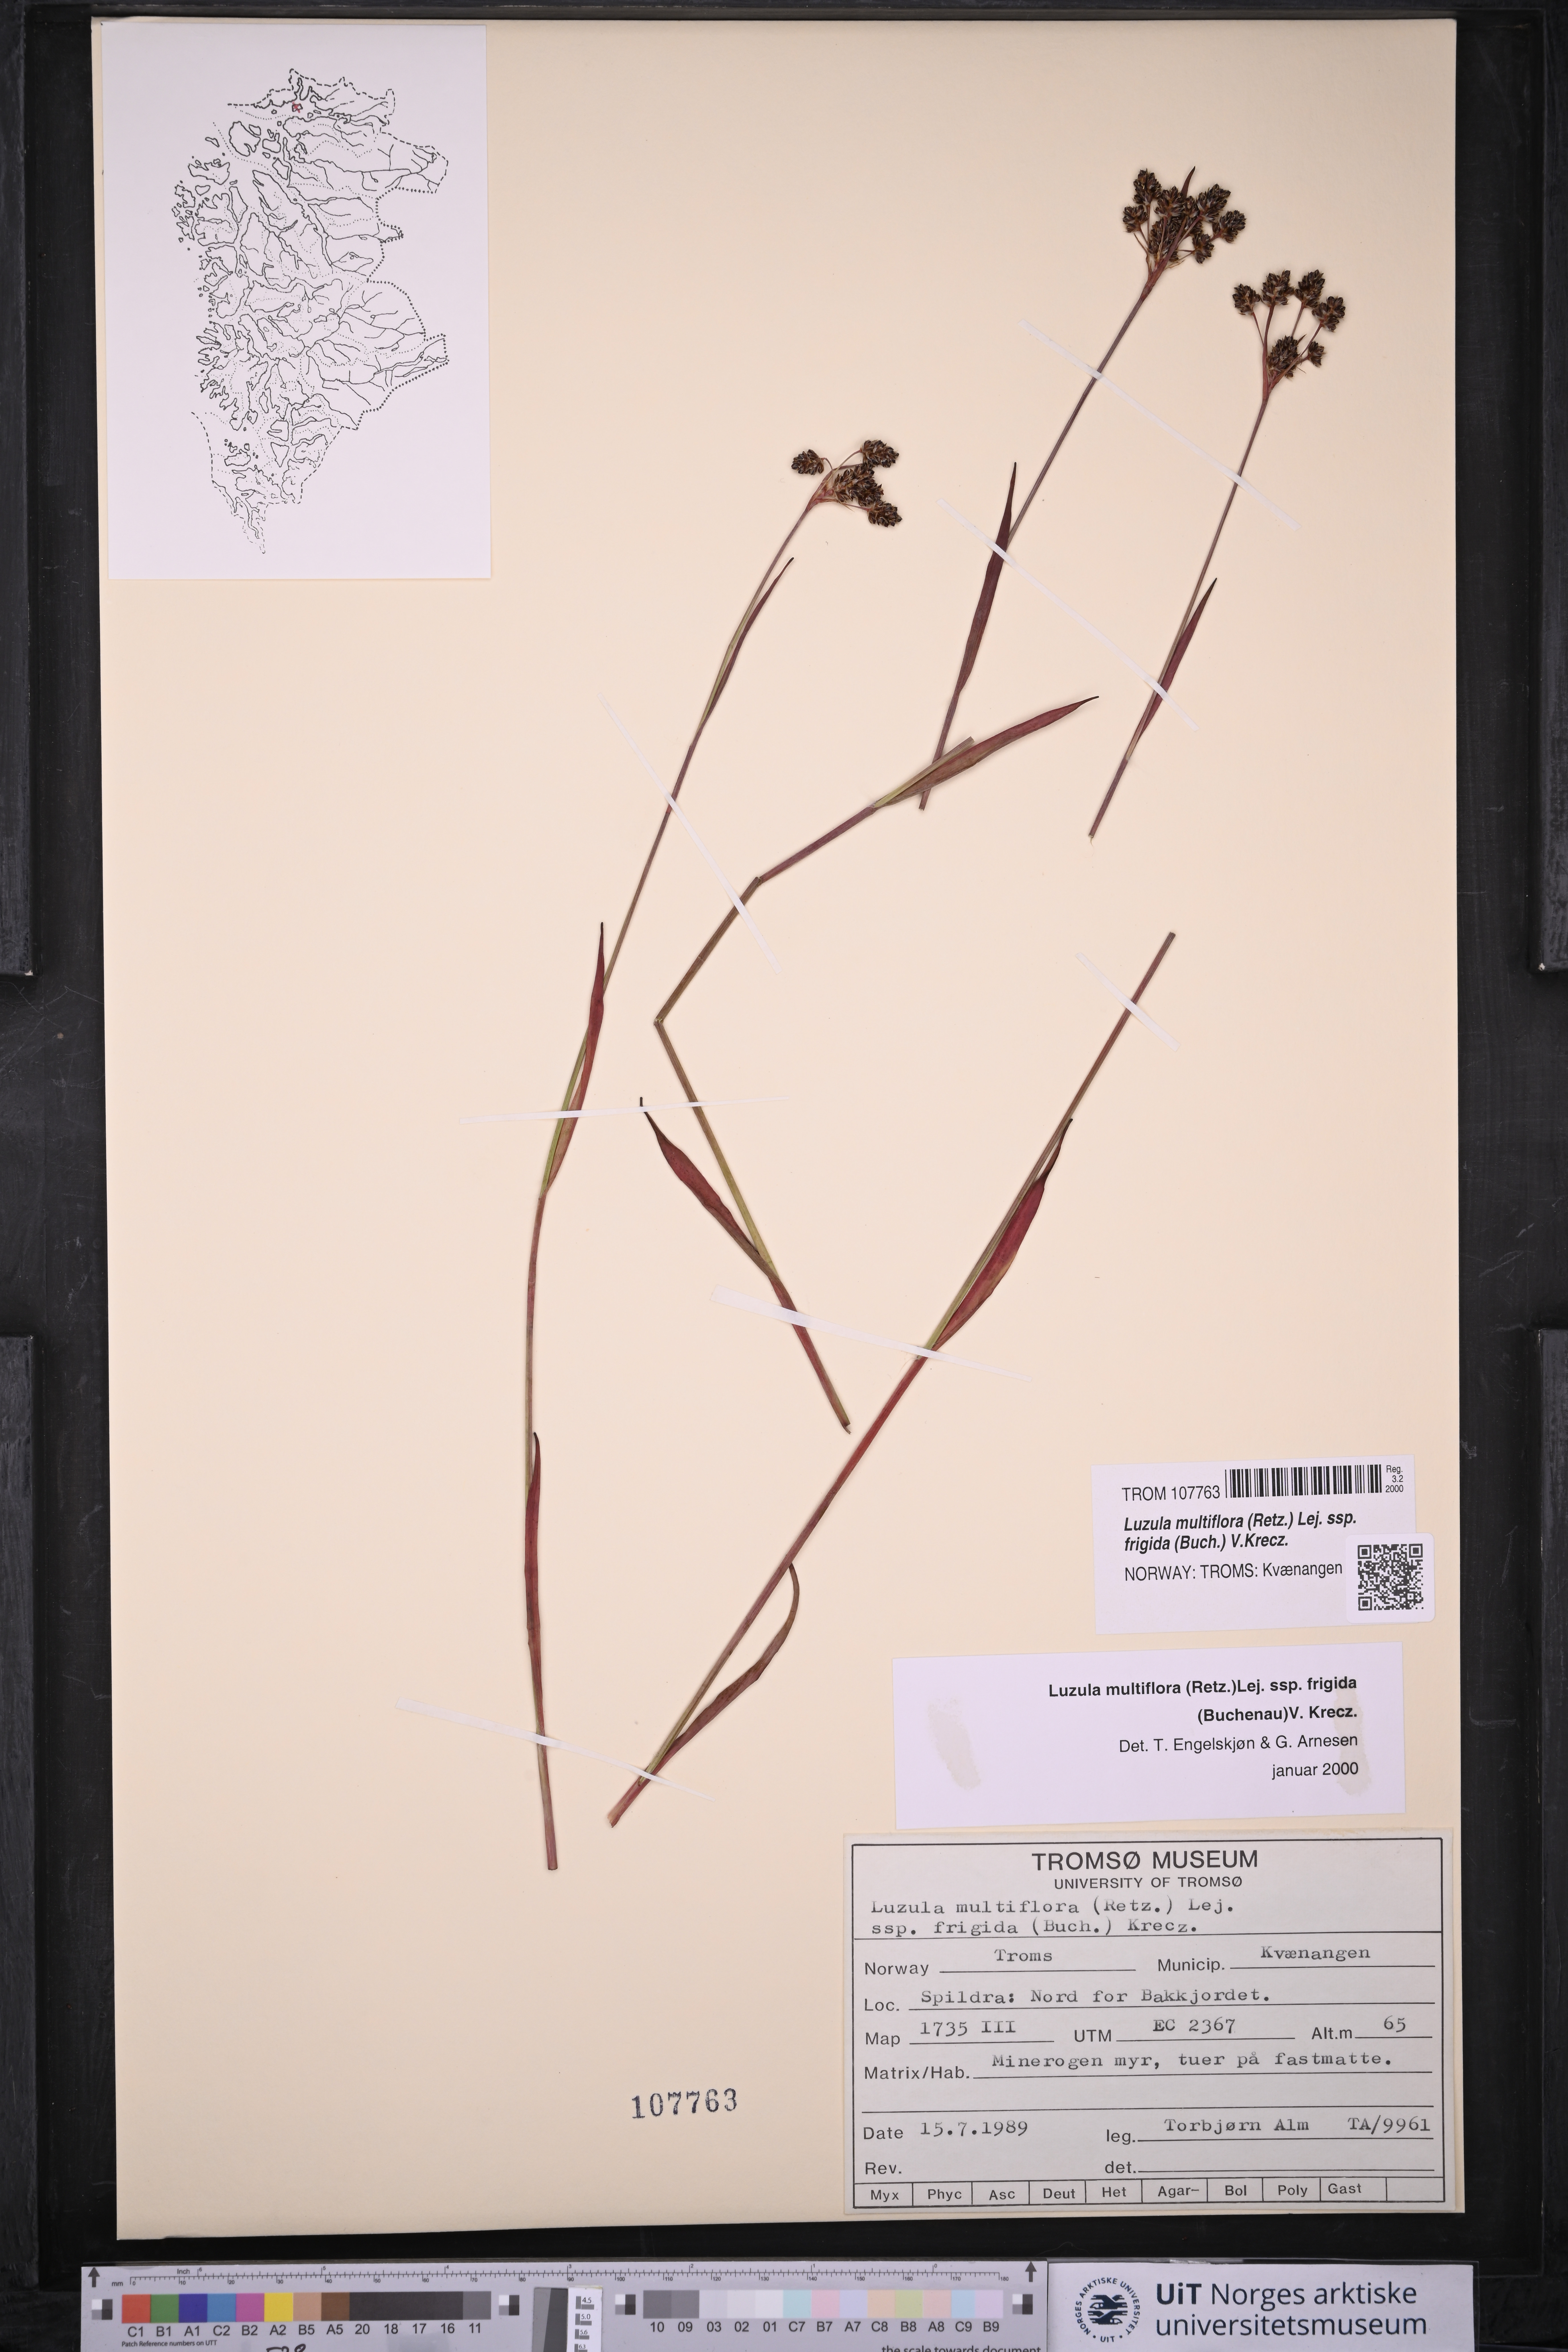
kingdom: Plantae
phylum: Tracheophyta
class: Liliopsida
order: Poales
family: Juncaceae
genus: Luzula
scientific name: Luzula multiflora
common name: Heath wood-rush
